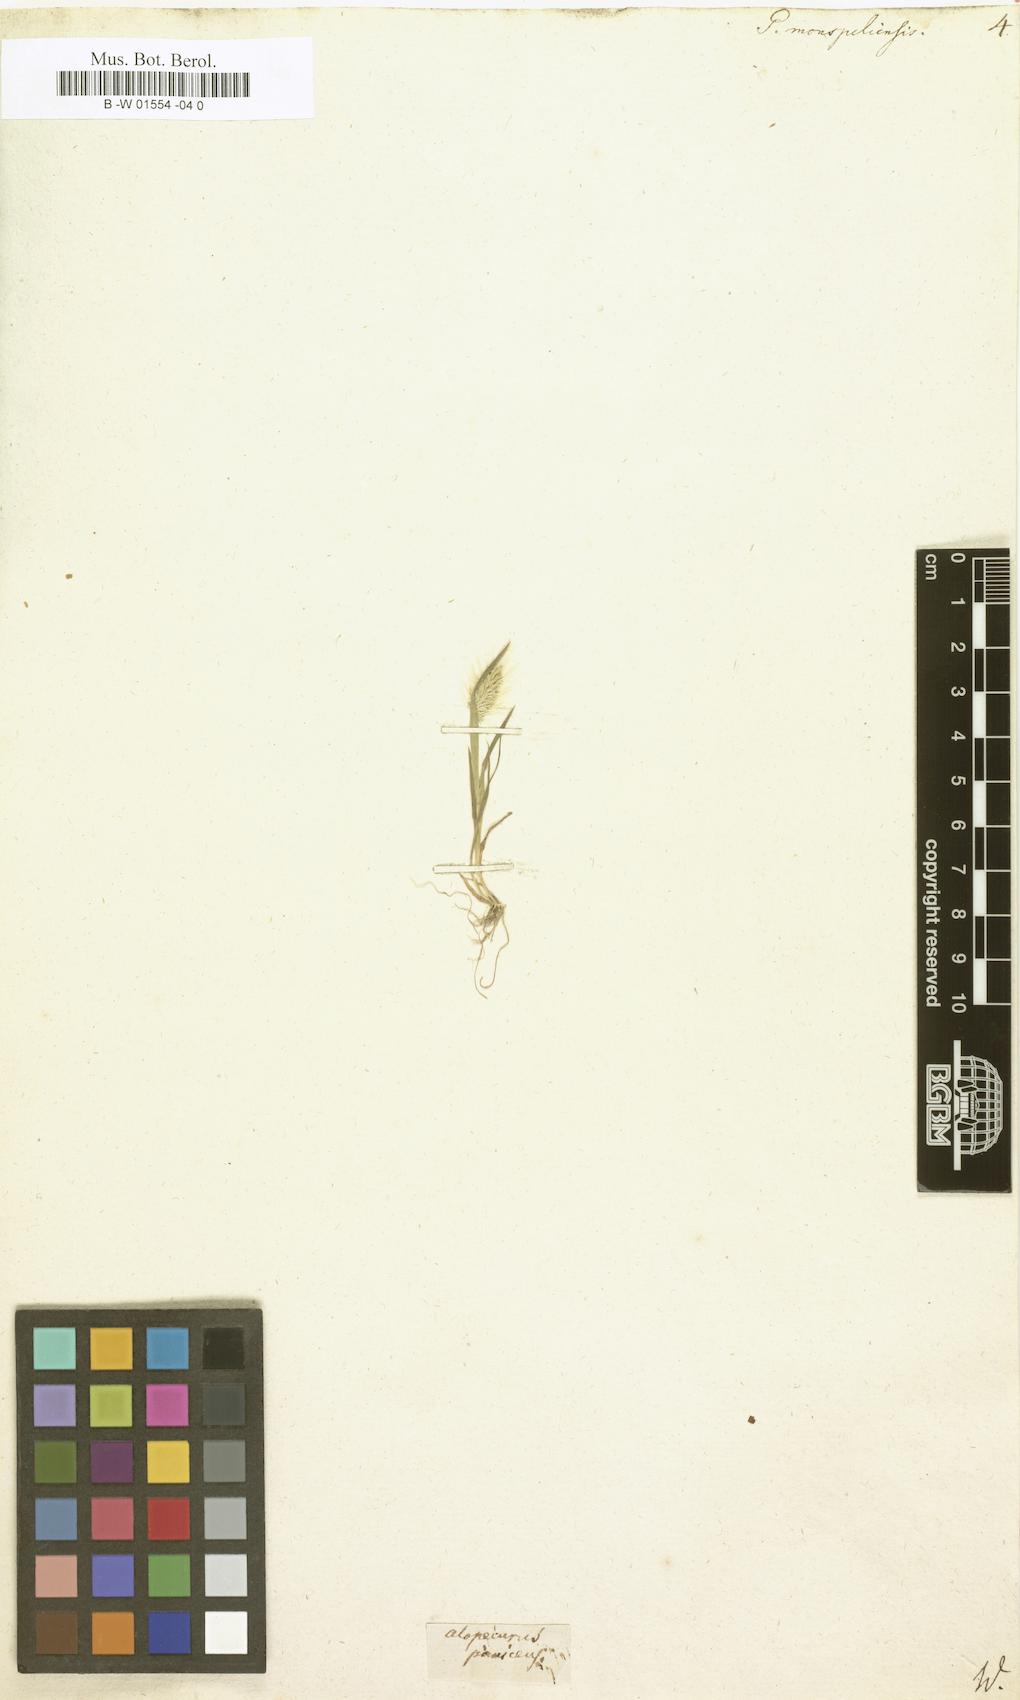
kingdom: Plantae
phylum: Tracheophyta
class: Liliopsida
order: Poales
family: Poaceae
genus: Polypogon
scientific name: Polypogon monspeliensis
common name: Annual rabbitsfoot grass
